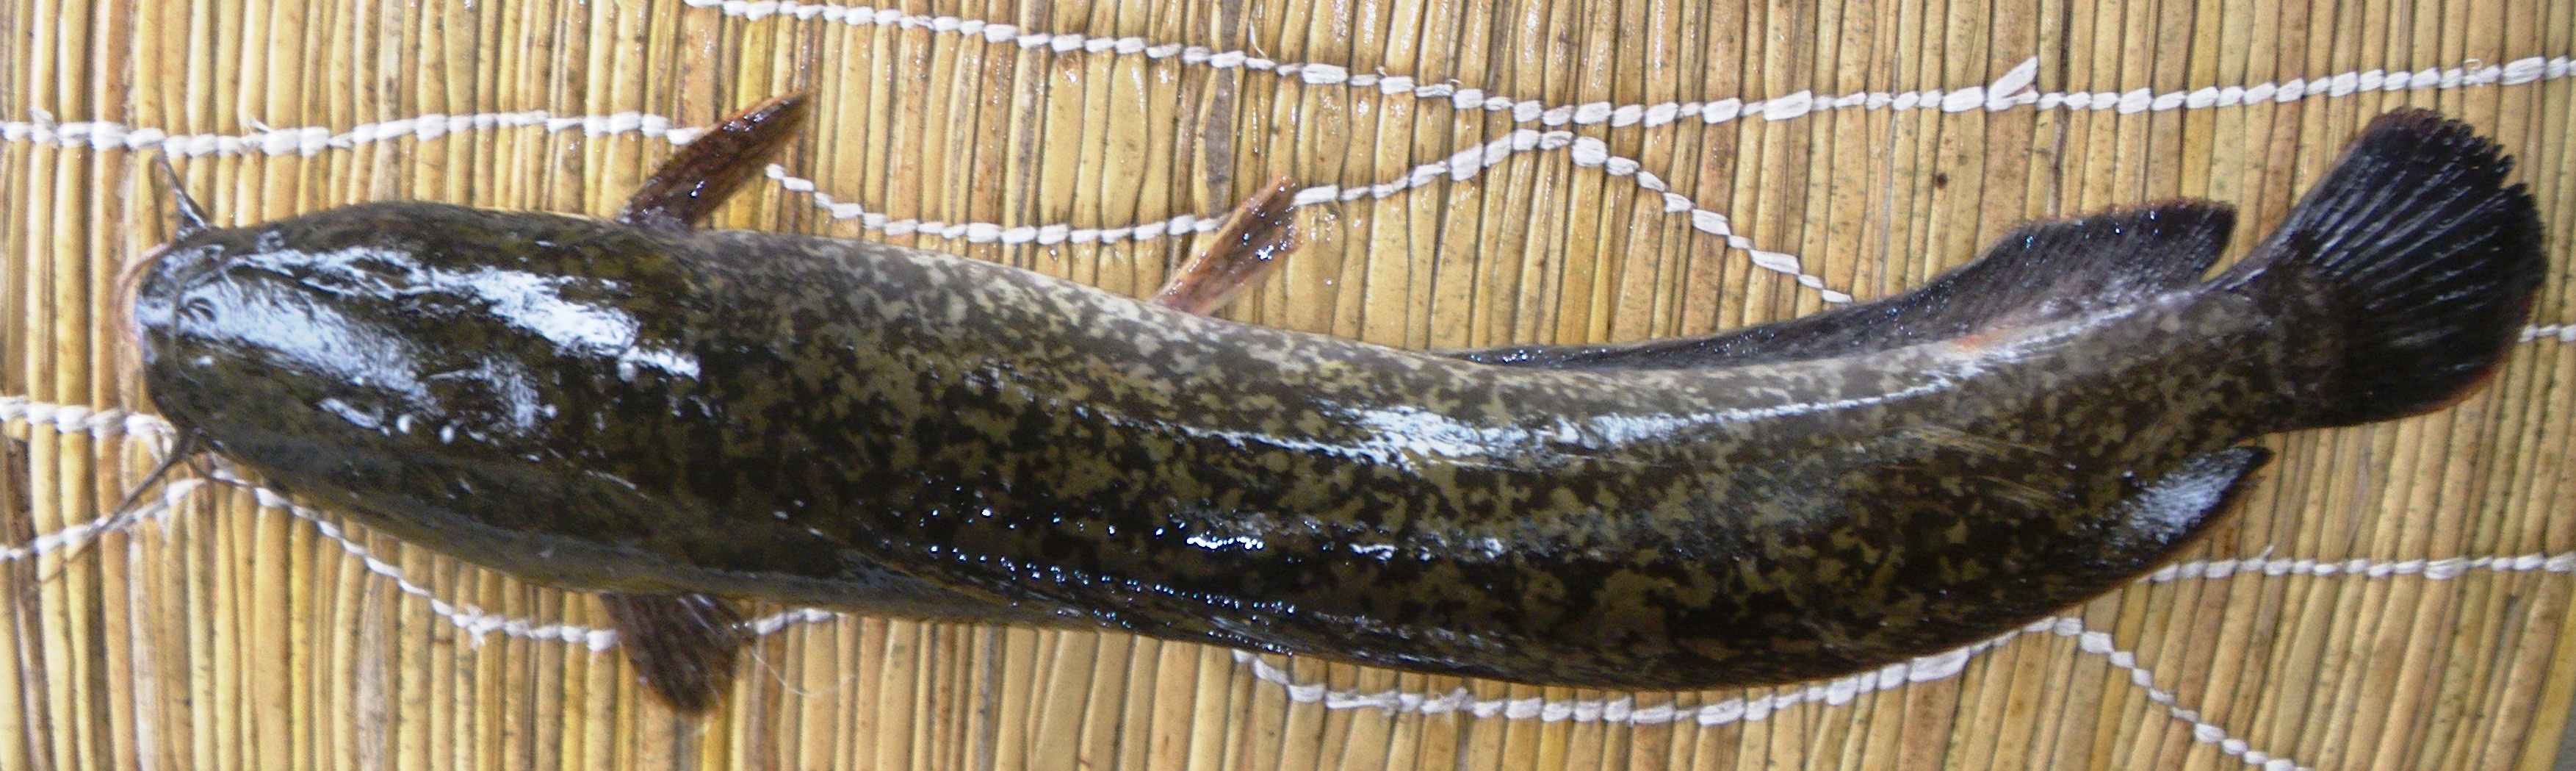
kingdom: Animalia
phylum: Chordata
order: Siluriformes
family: Clariidae
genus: Clarias
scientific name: Clarias gariepinus
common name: African catfish
